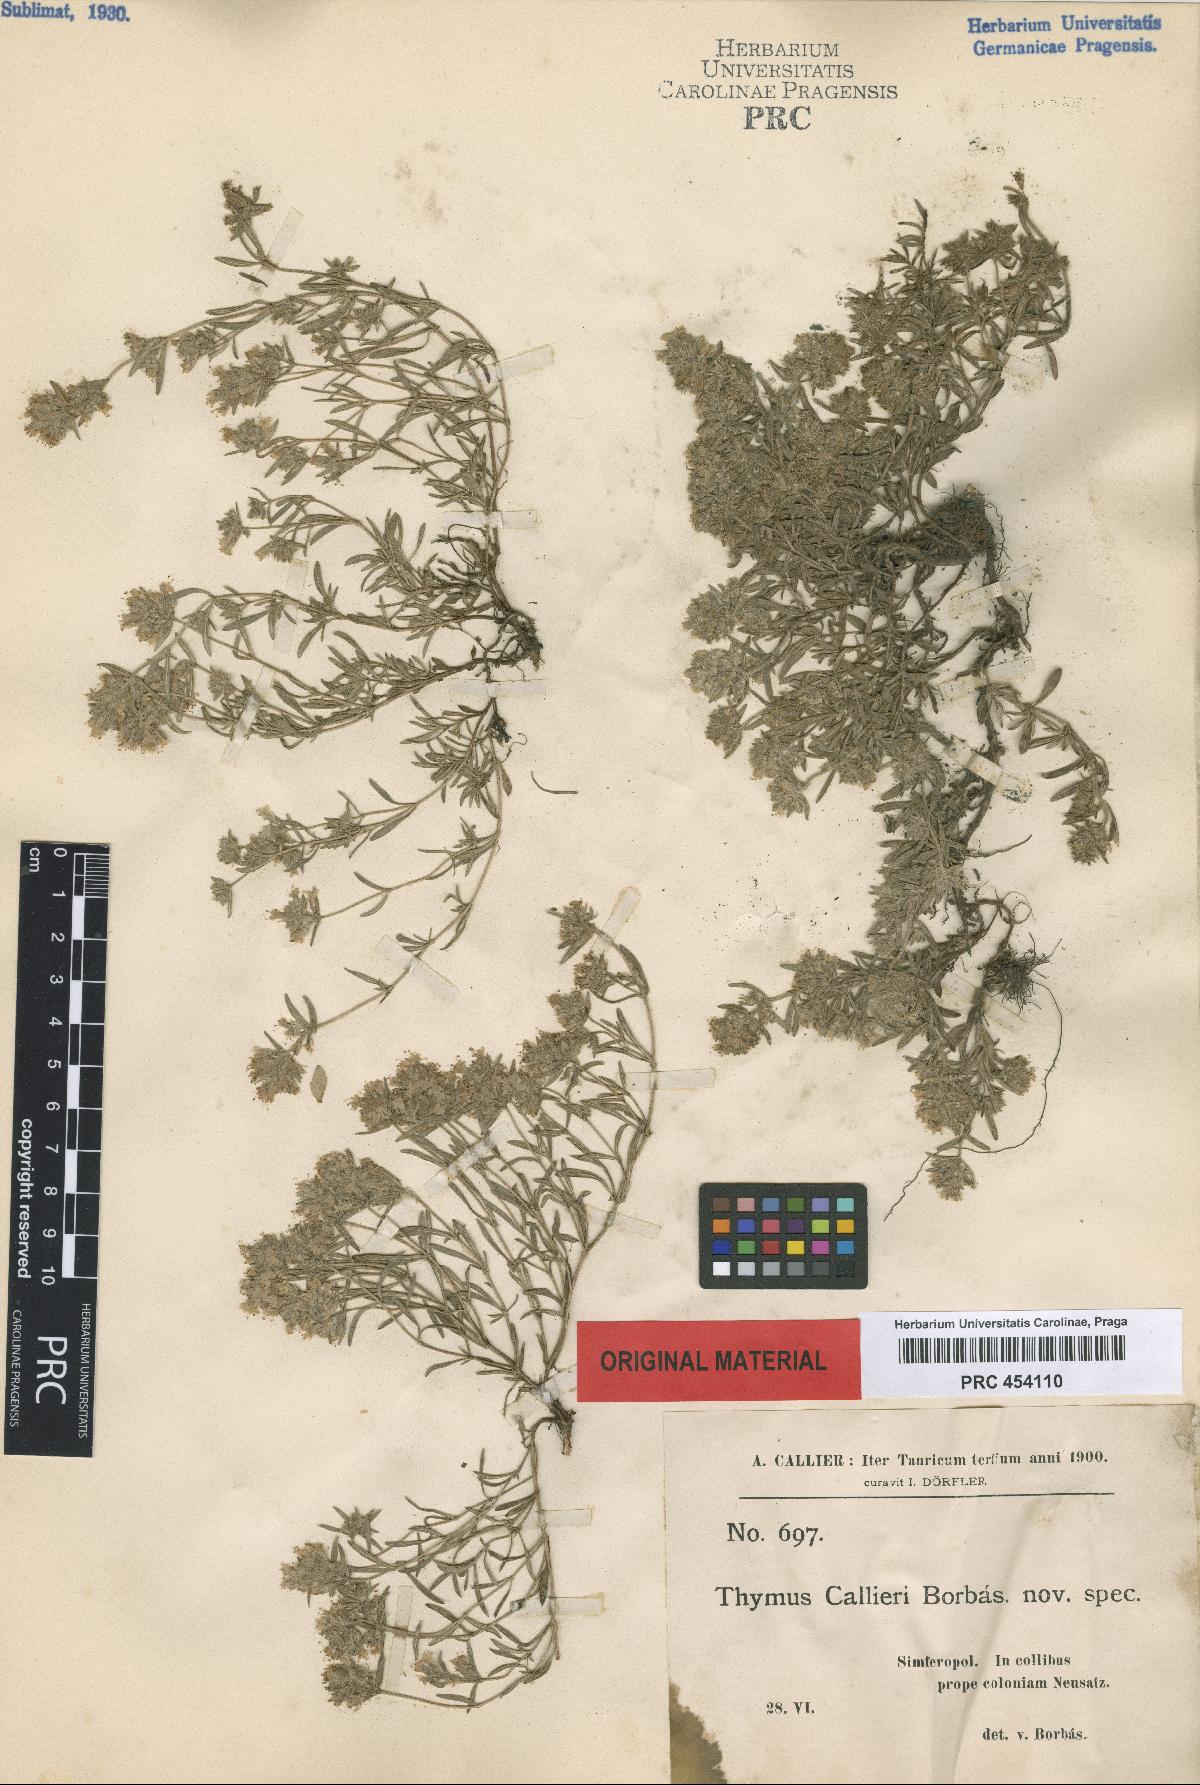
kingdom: Plantae
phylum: Tracheophyta
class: Magnoliopsida
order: Lamiales
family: Lamiaceae
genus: Thymus
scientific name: Thymus callieri
